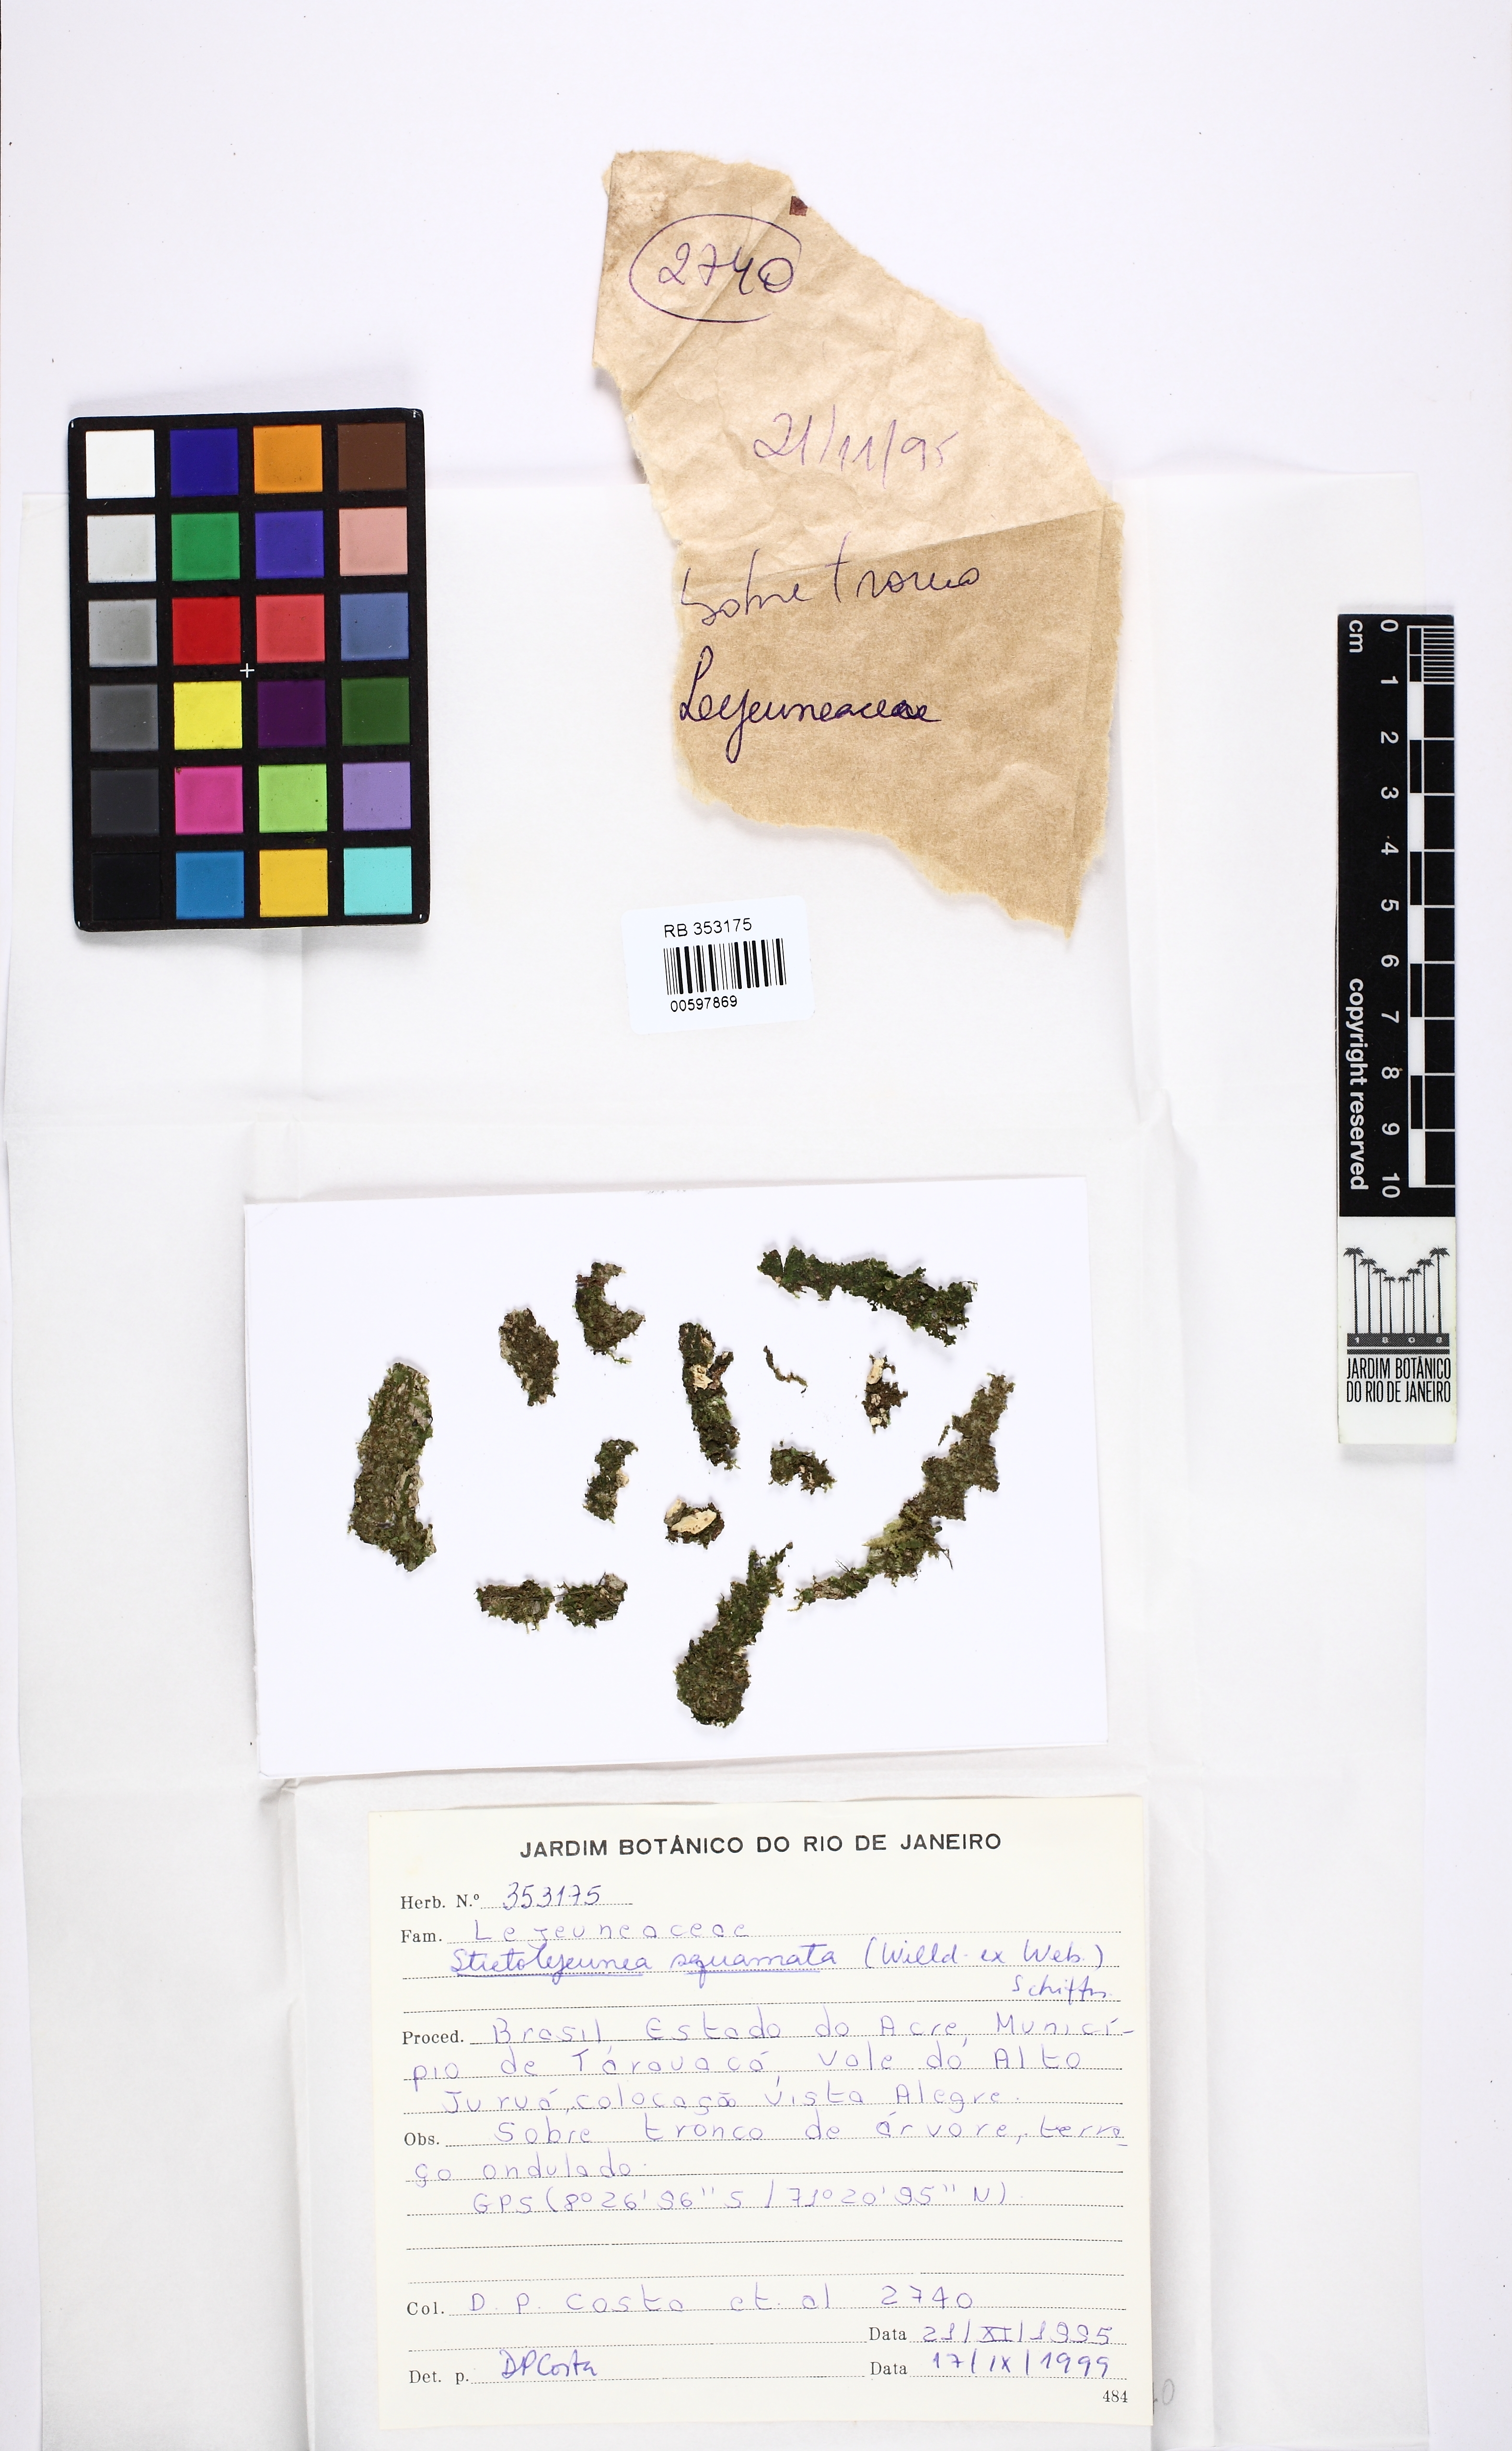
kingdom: Plantae
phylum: Marchantiophyta
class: Jungermanniopsida
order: Porellales
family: Lejeuneaceae
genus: Stictolejeunea
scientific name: Stictolejeunea squamata
